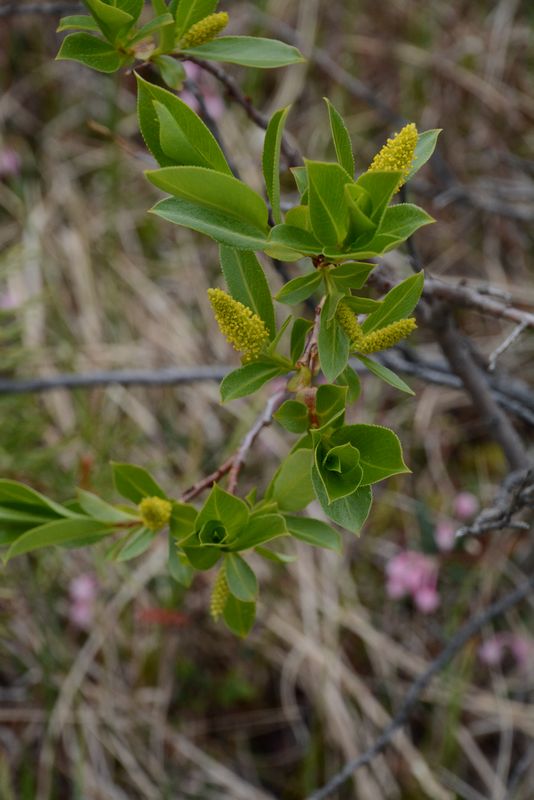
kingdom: Plantae
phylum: Tracheophyta
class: Magnoliopsida
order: Malpighiales
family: Salicaceae
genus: Salix
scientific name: Salix pentandra
